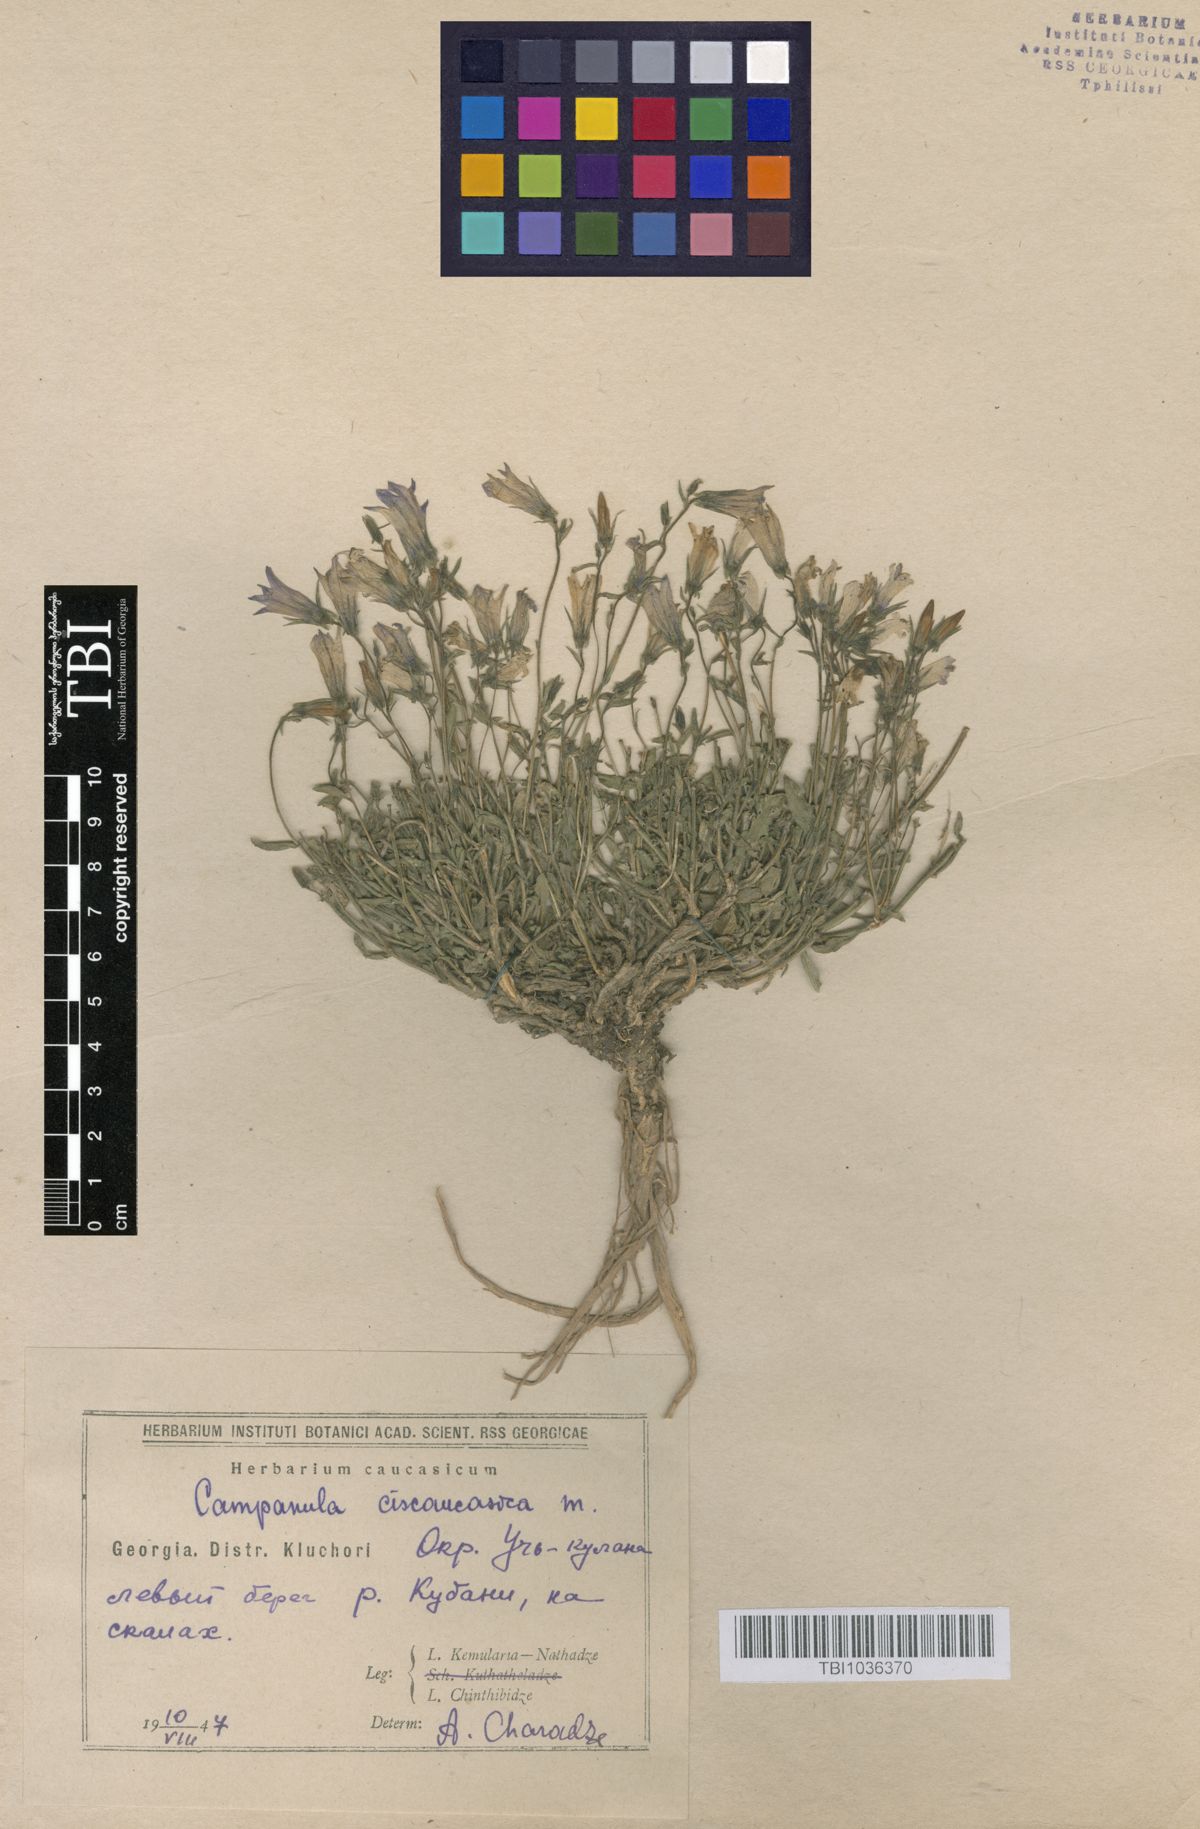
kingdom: Plantae
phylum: Tracheophyta
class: Magnoliopsida
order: Asterales
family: Campanulaceae
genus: Campanula
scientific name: Campanula sibirica
